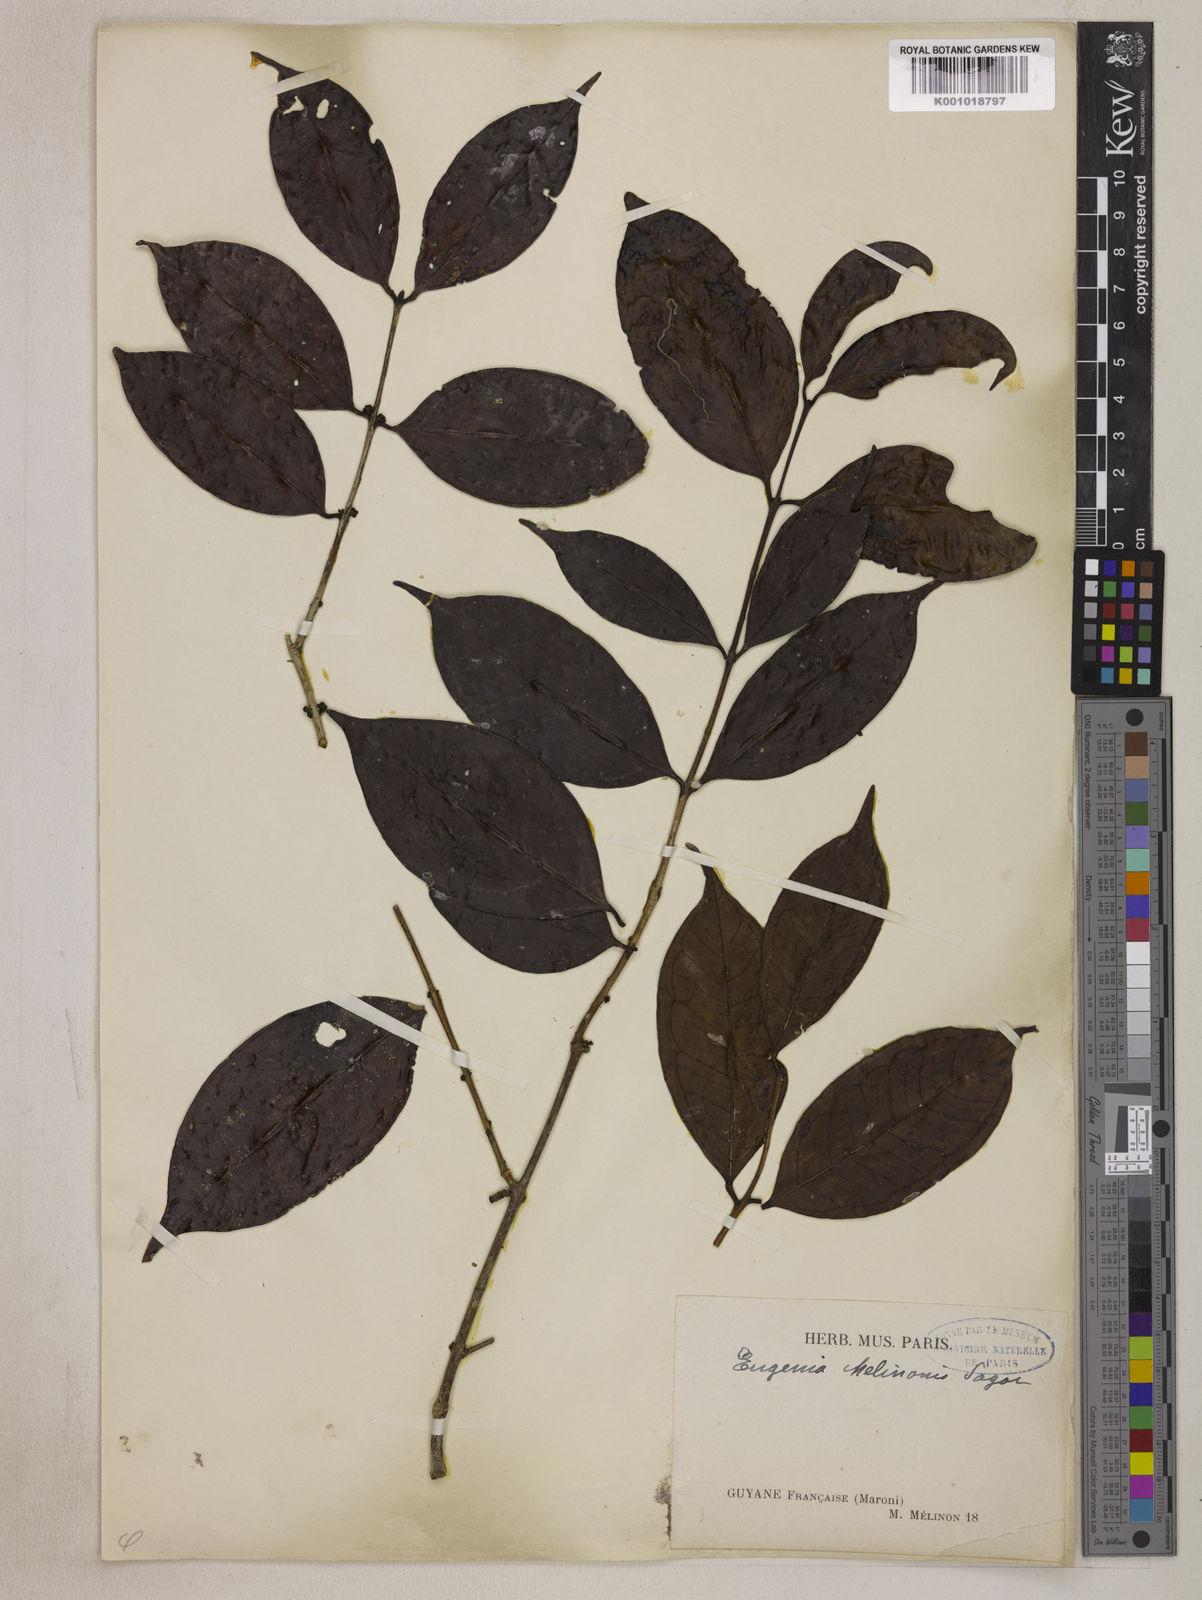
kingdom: Plantae
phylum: Tracheophyta
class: Magnoliopsida
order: Myrtales
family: Myrtaceae
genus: Eugenia
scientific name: Eugenia coffeifolia
